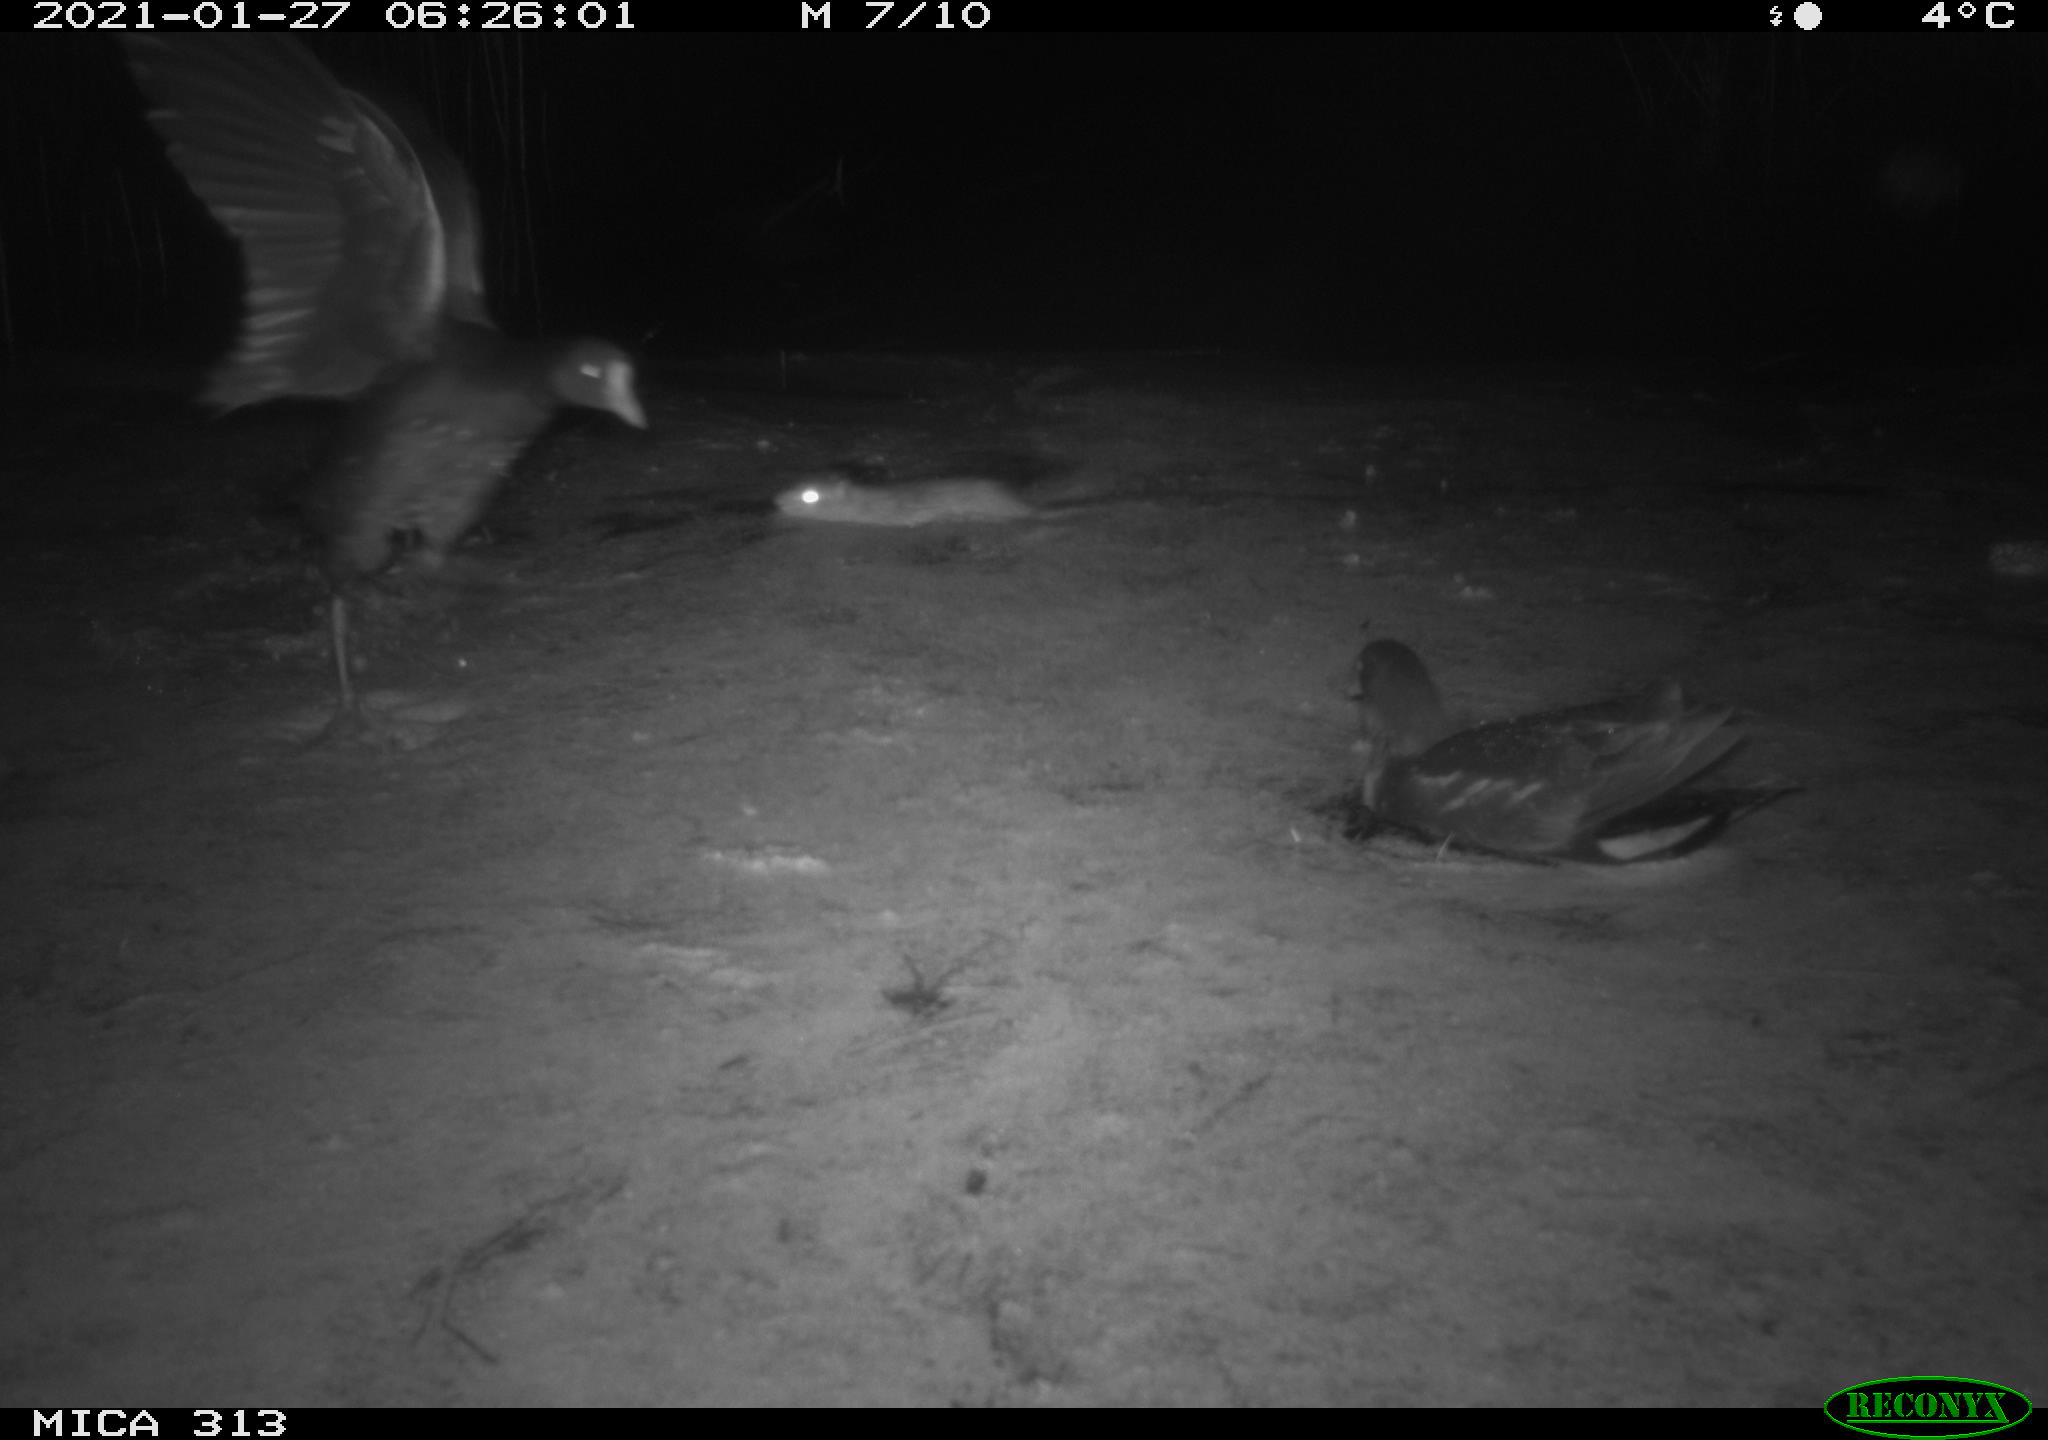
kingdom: Animalia
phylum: Chordata
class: Aves
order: Anseriformes
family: Anatidae
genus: Anas
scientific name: Anas platyrhynchos
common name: Mallard
